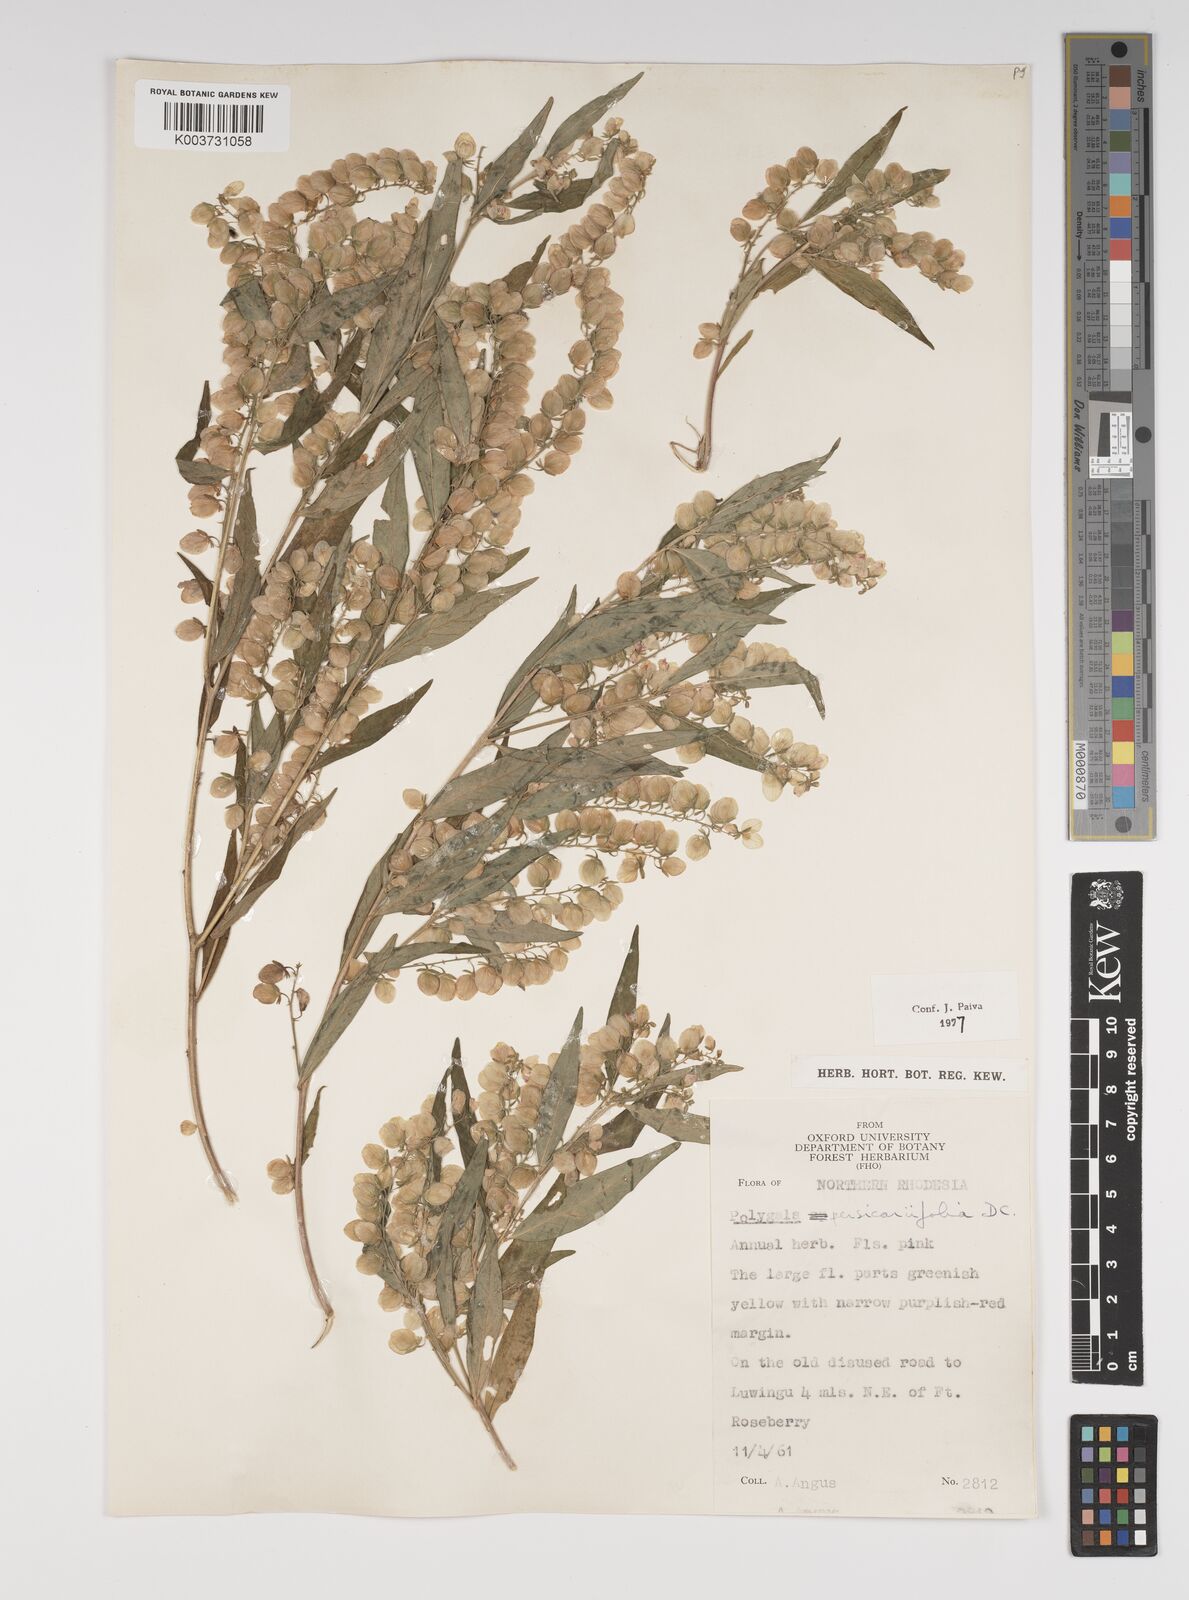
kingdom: Plantae
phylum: Tracheophyta
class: Magnoliopsida
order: Fabales
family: Polygalaceae
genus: Polygala
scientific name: Polygala persicariifolia
